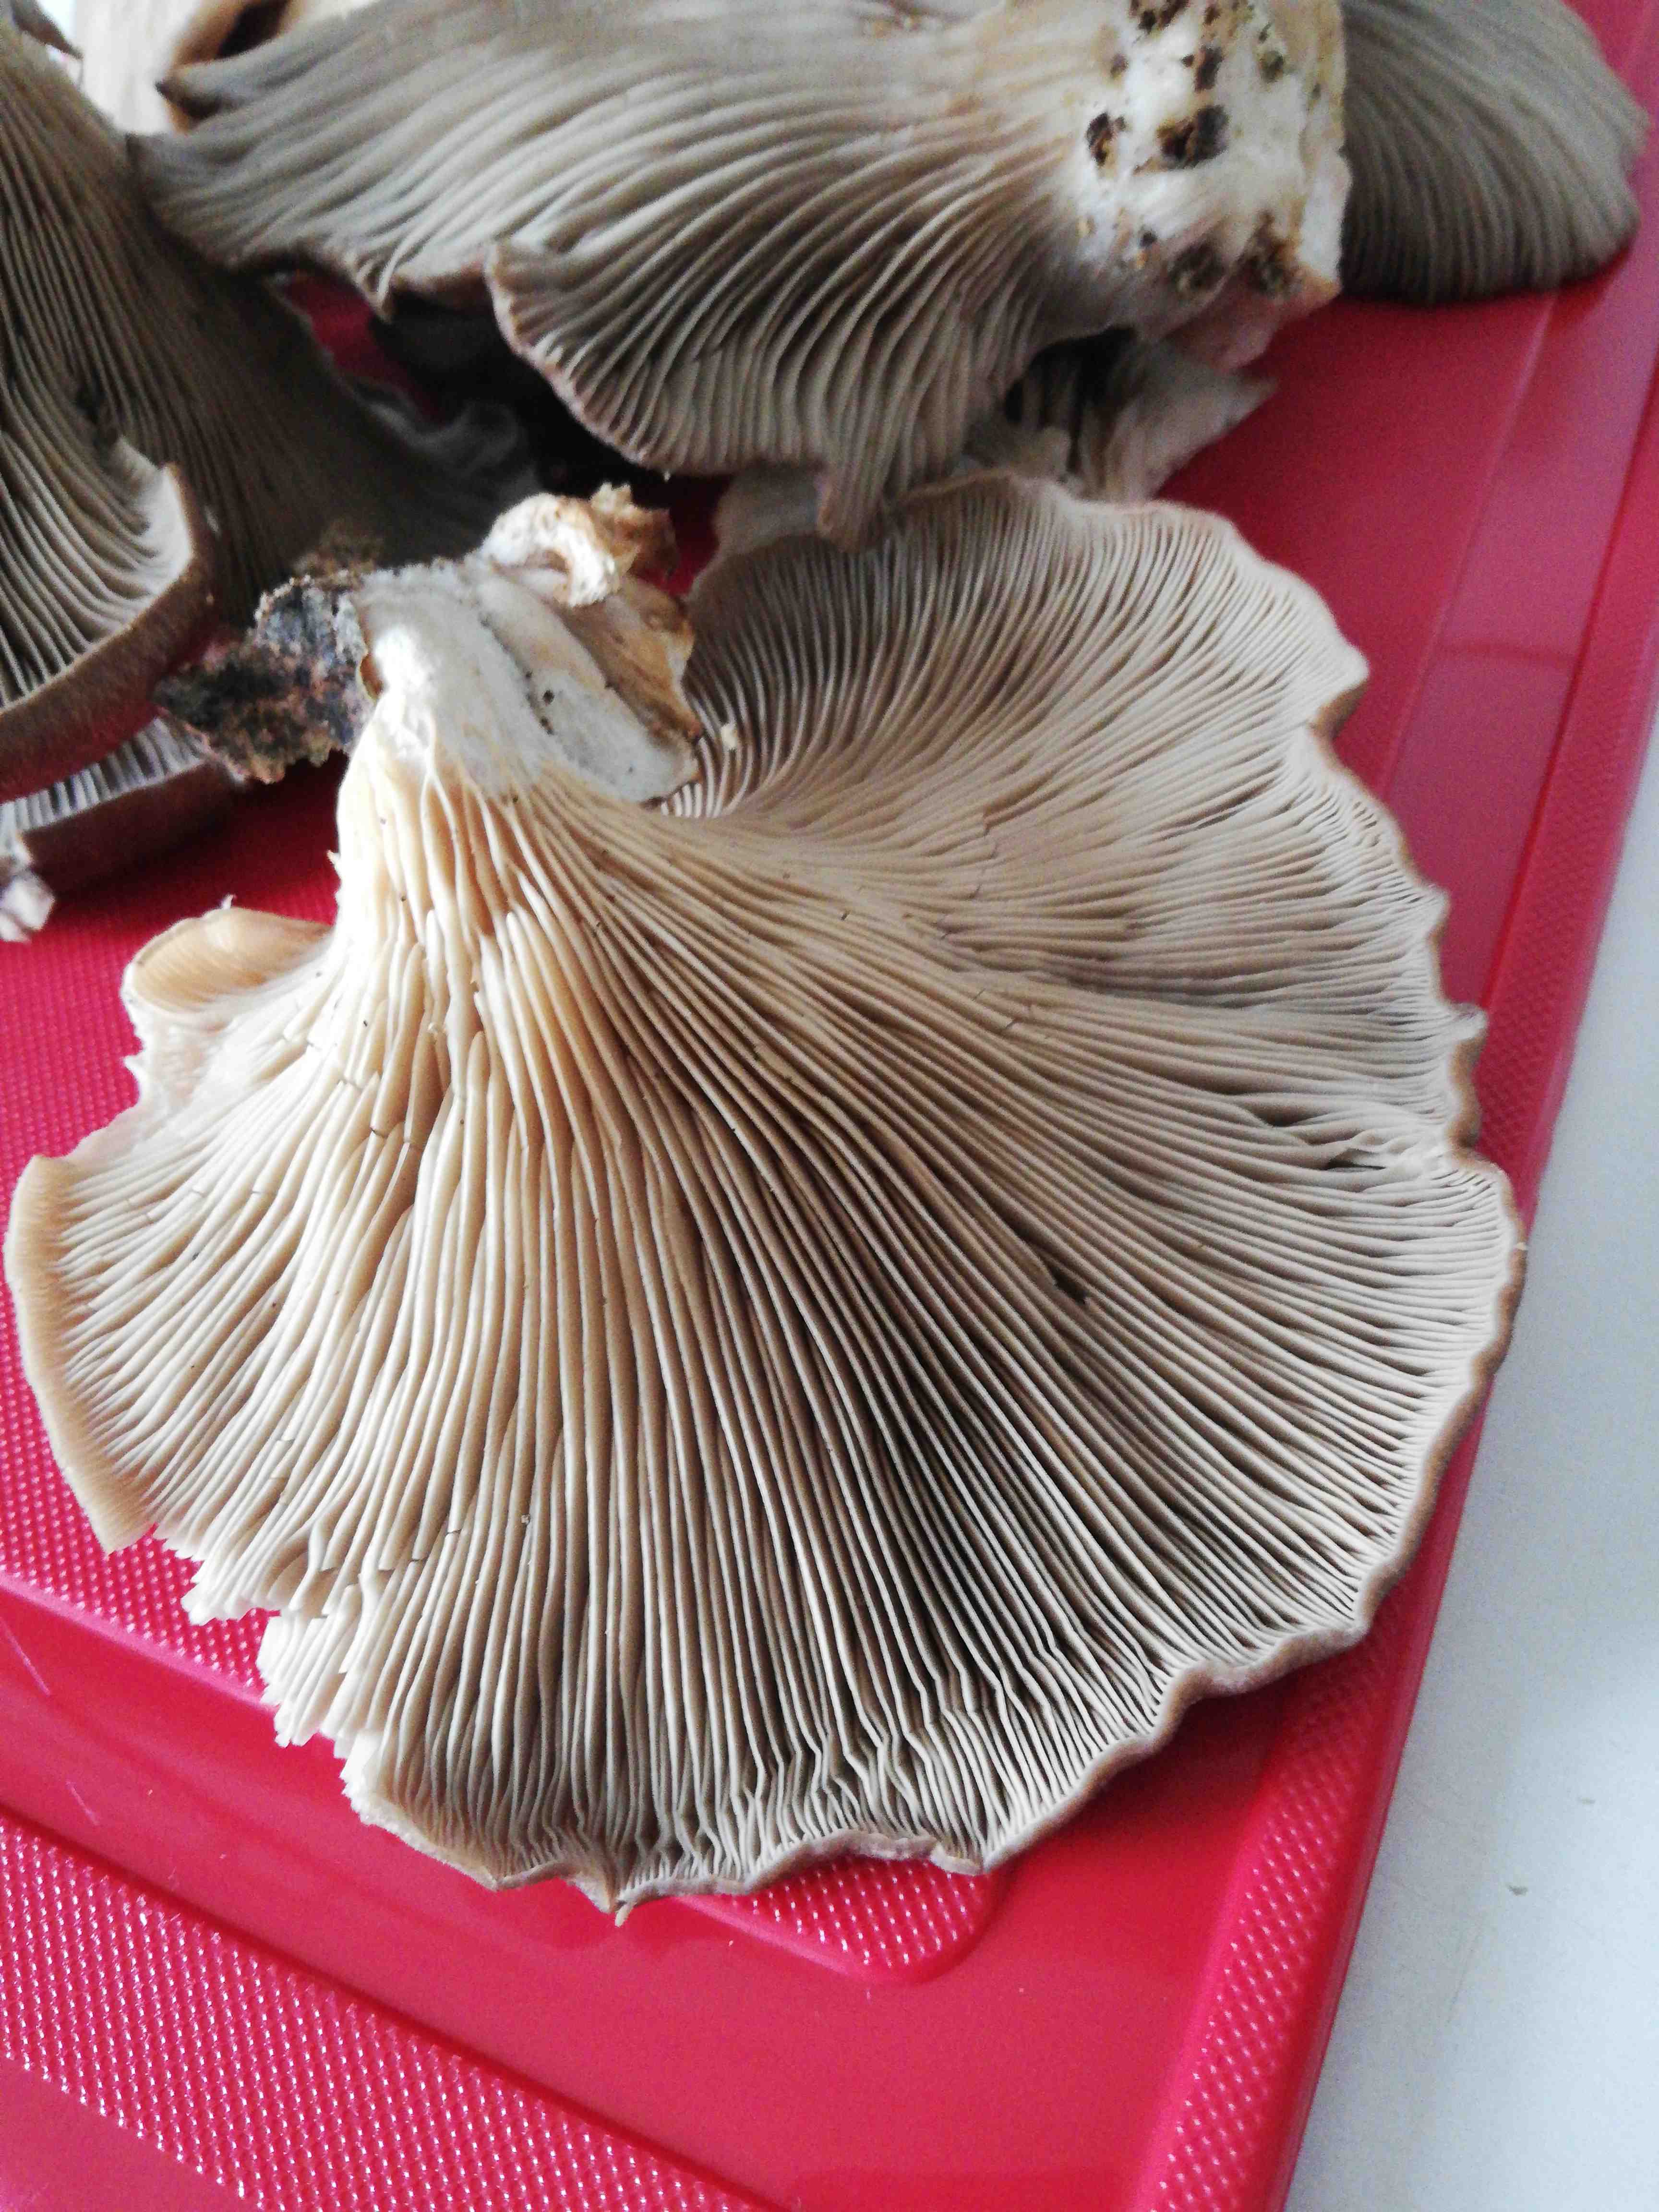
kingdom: Fungi
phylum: Basidiomycota
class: Agaricomycetes
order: Agaricales
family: Pleurotaceae
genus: Pleurotus
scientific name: Pleurotus ostreatus
